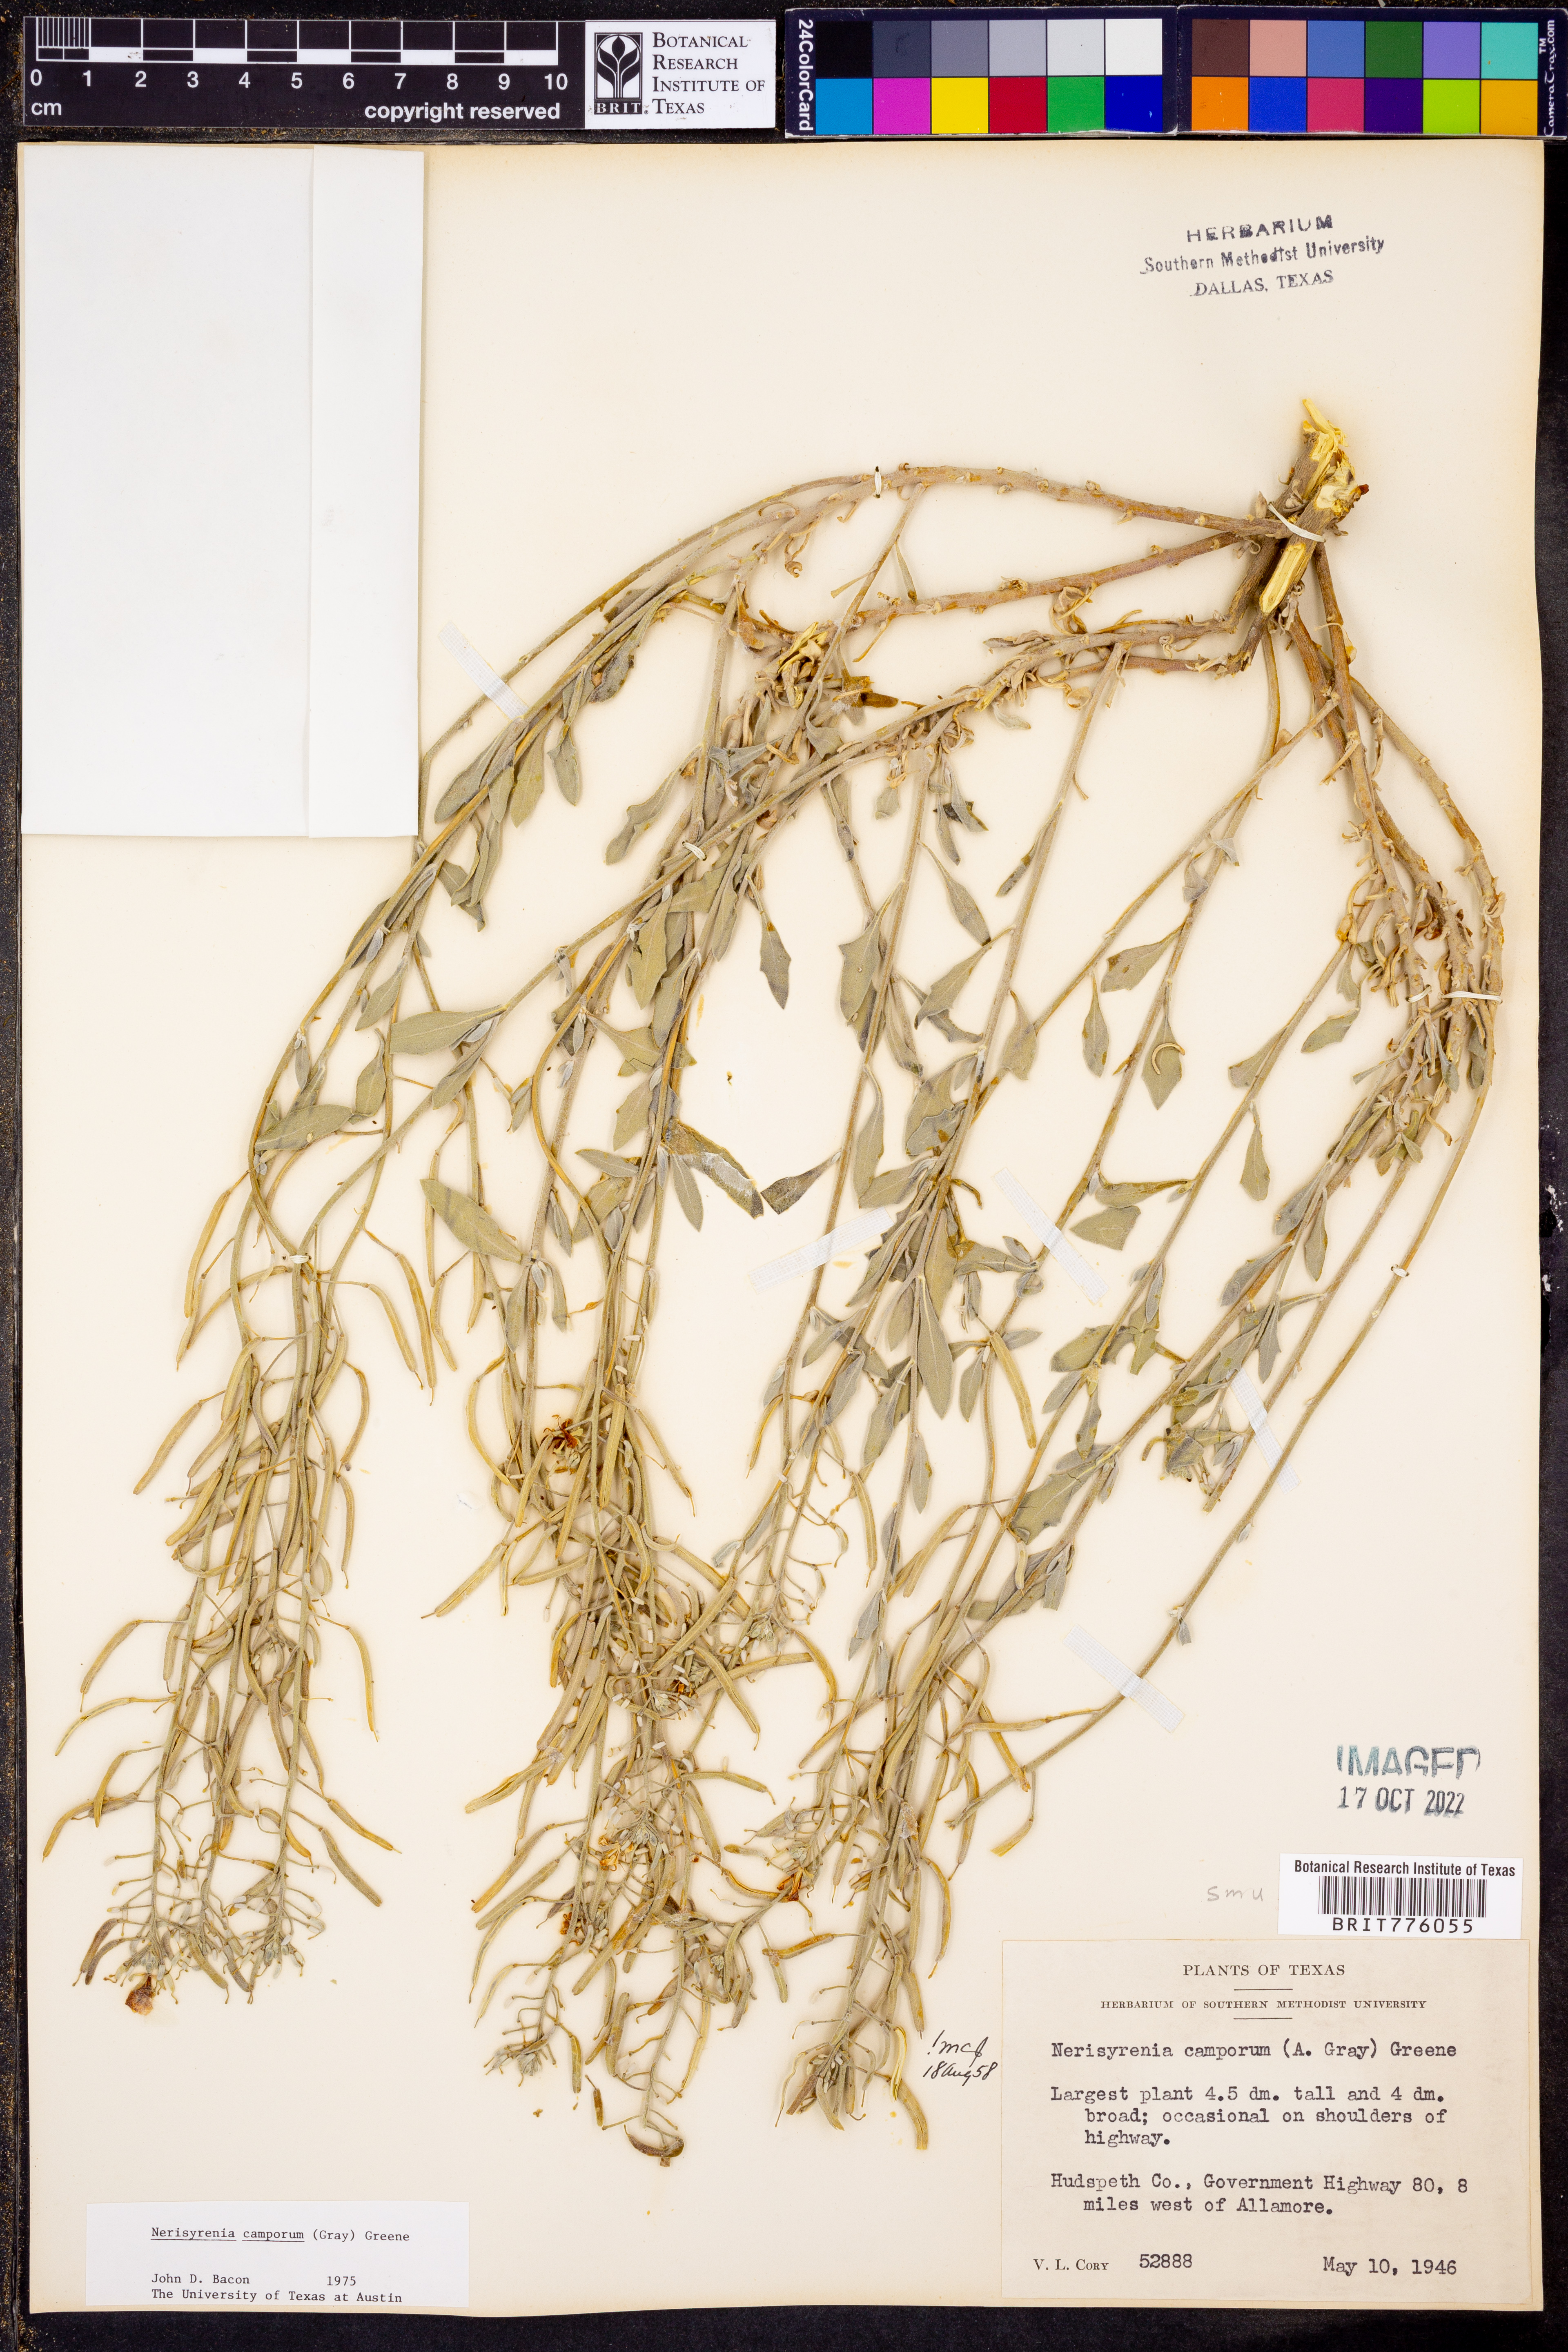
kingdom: Plantae
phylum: Tracheophyta
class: Magnoliopsida
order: Brassicales
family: Brassicaceae
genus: Nerisyrenia
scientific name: Nerisyrenia camporum
